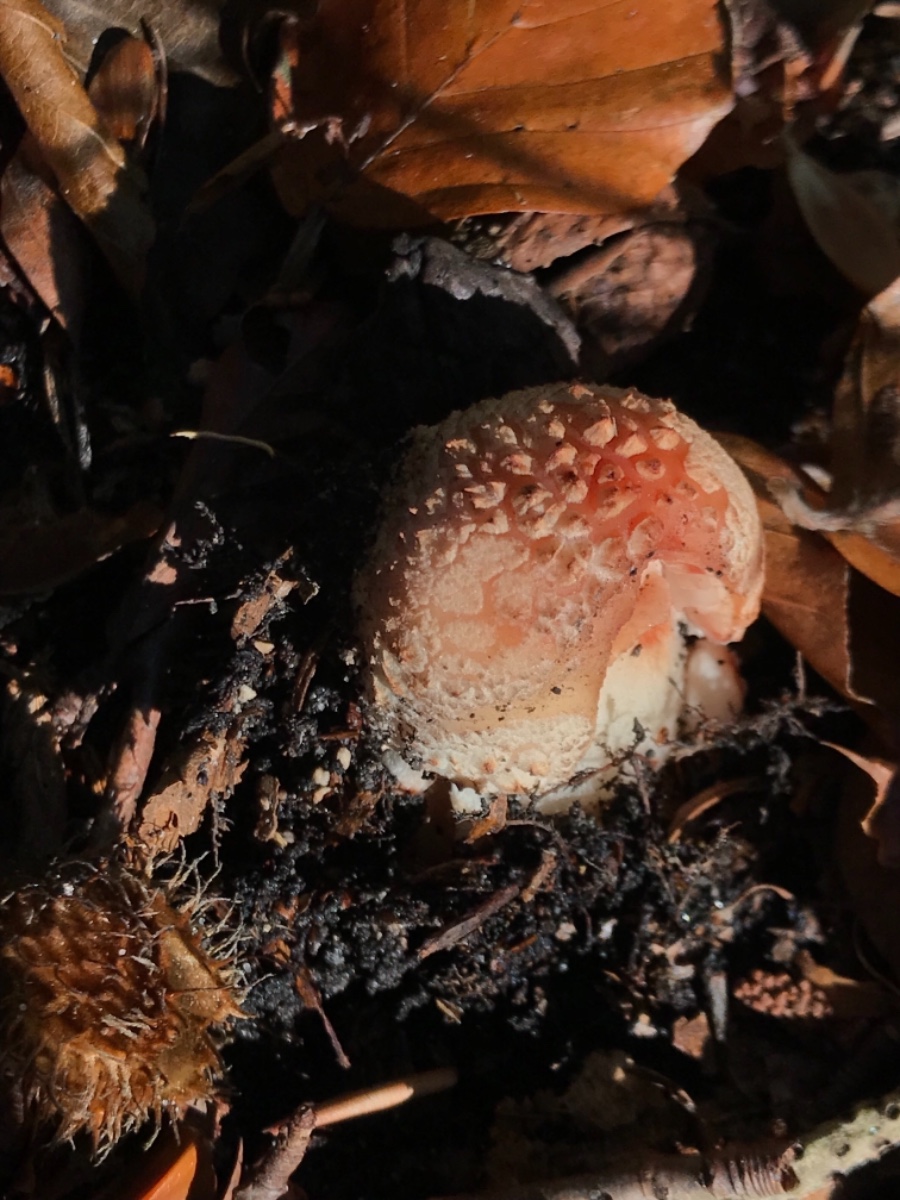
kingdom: Fungi
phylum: Basidiomycota
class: Agaricomycetes
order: Agaricales
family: Amanitaceae
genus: Amanita
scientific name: Amanita rubescens
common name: rødmende fluesvamp
